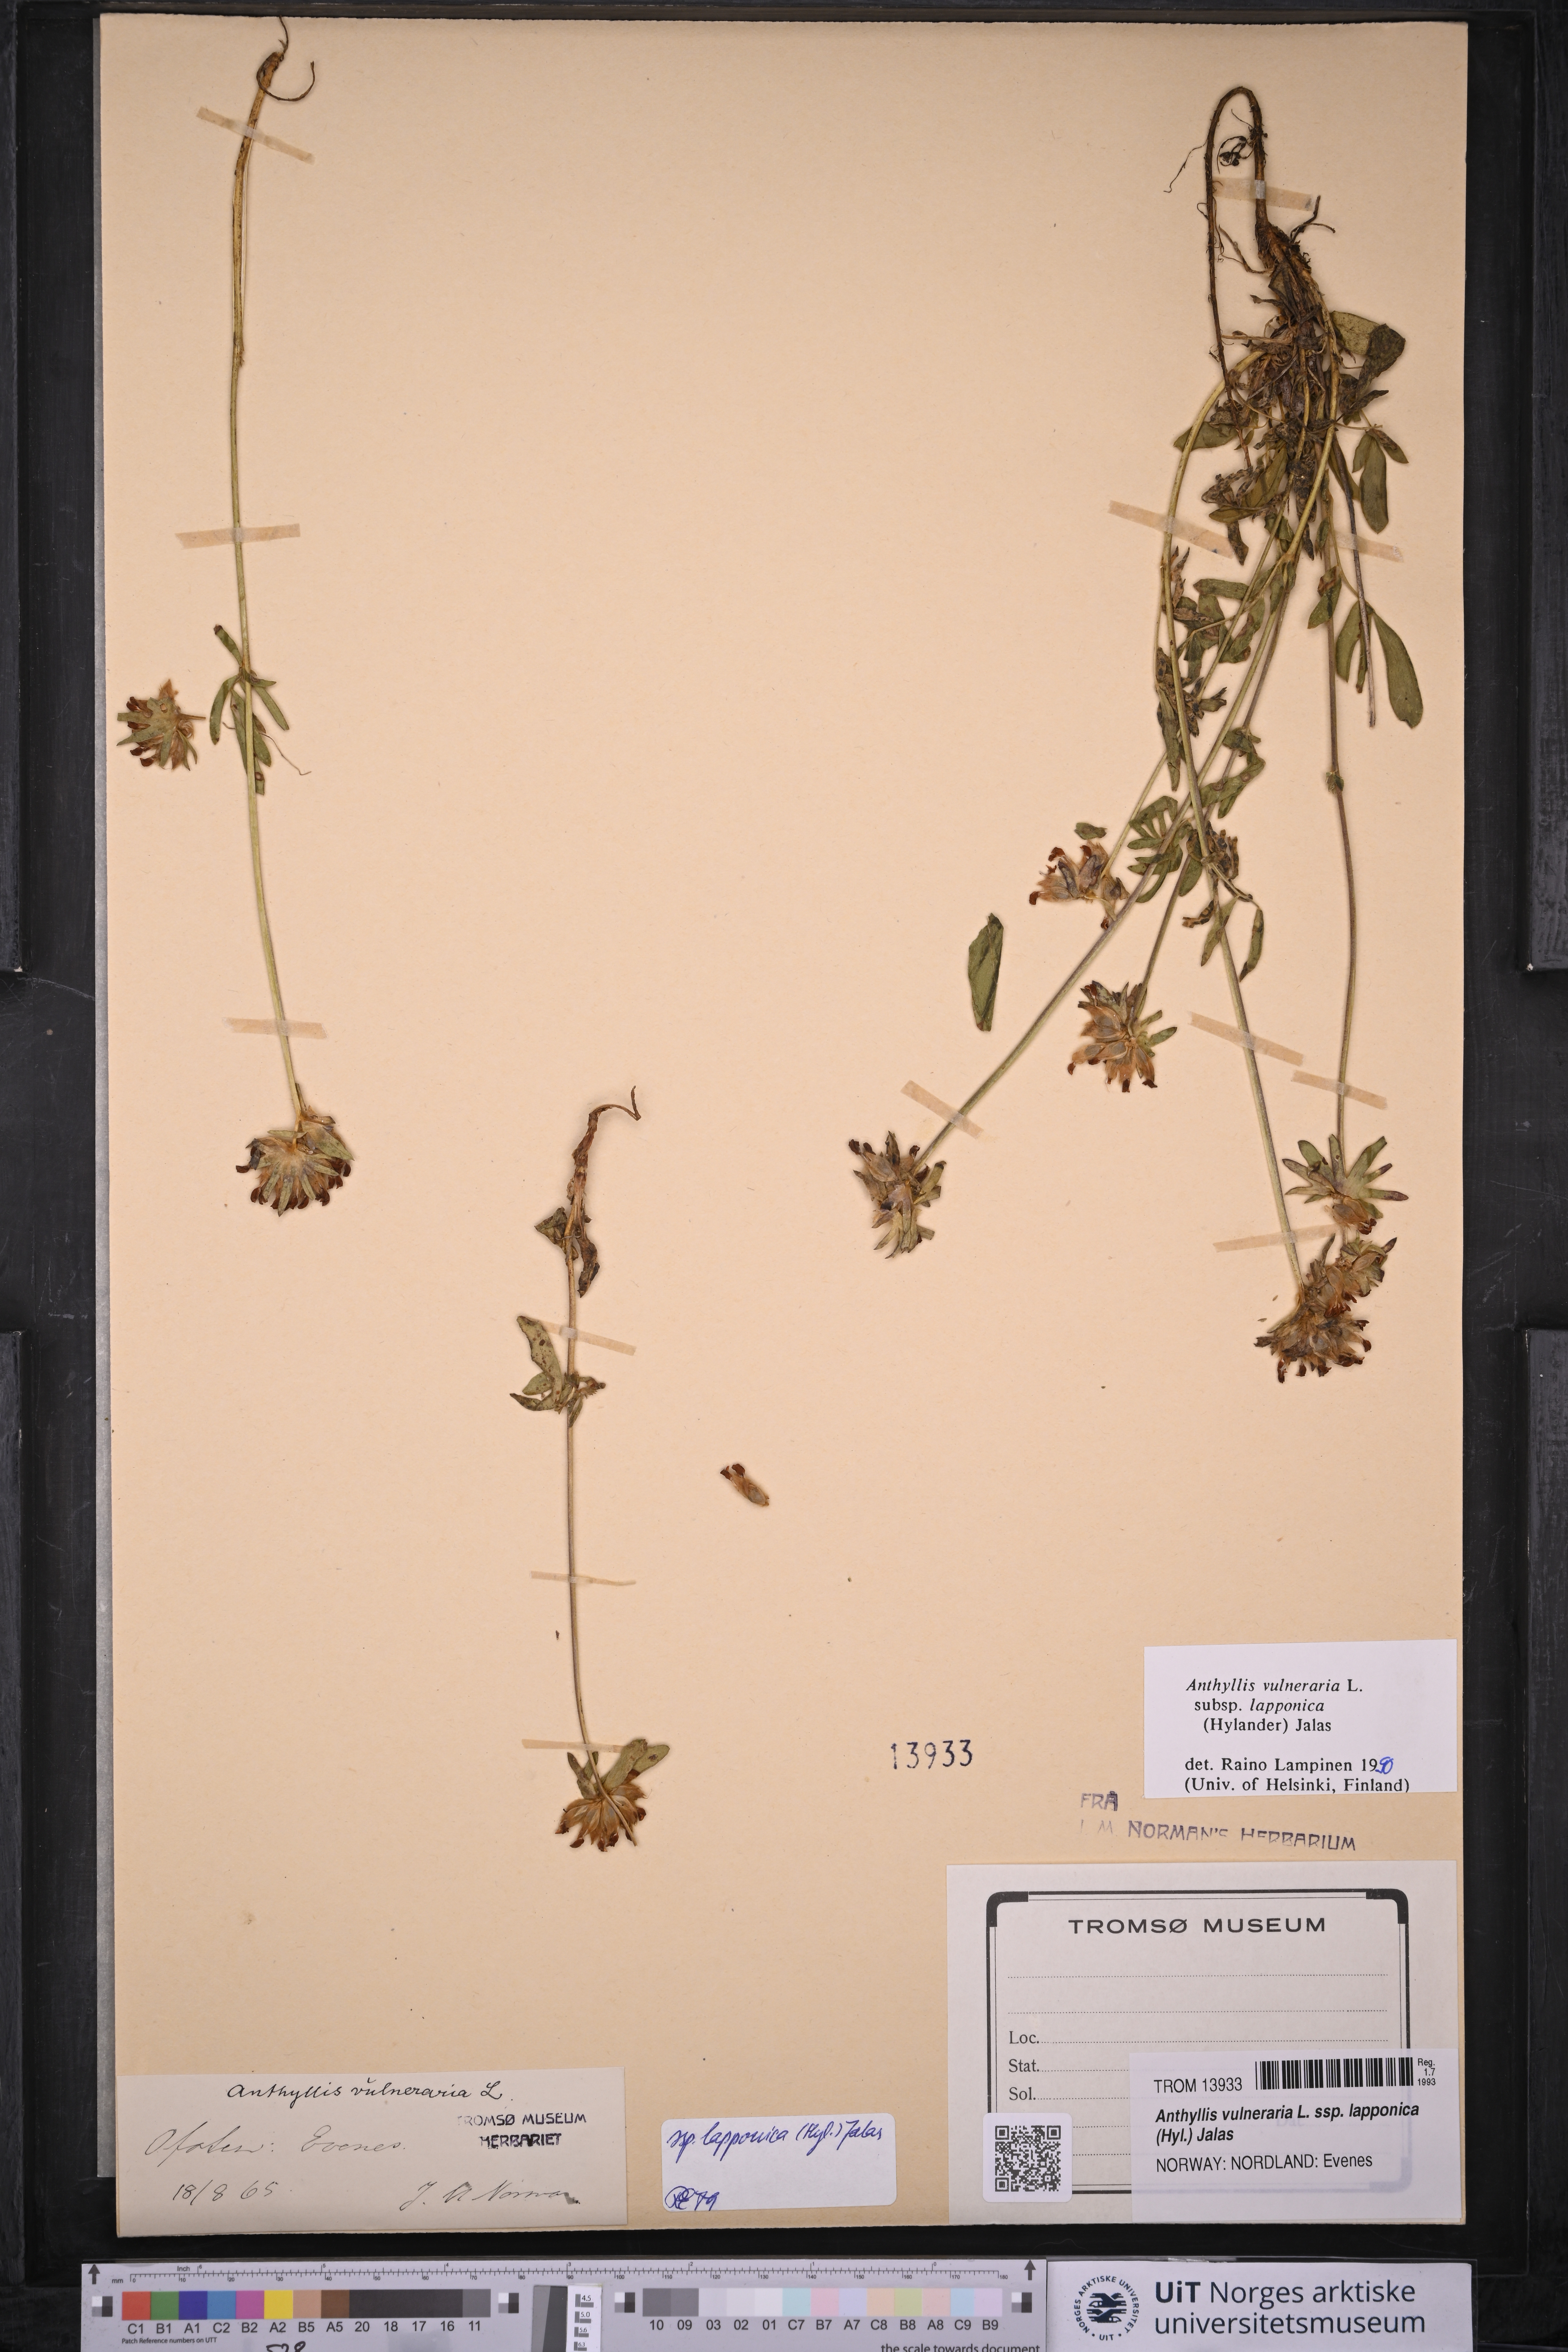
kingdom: Plantae
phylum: Tracheophyta
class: Magnoliopsida
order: Fabales
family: Fabaceae
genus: Anthyllis
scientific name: Anthyllis vulneraria
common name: Kidney vetch
